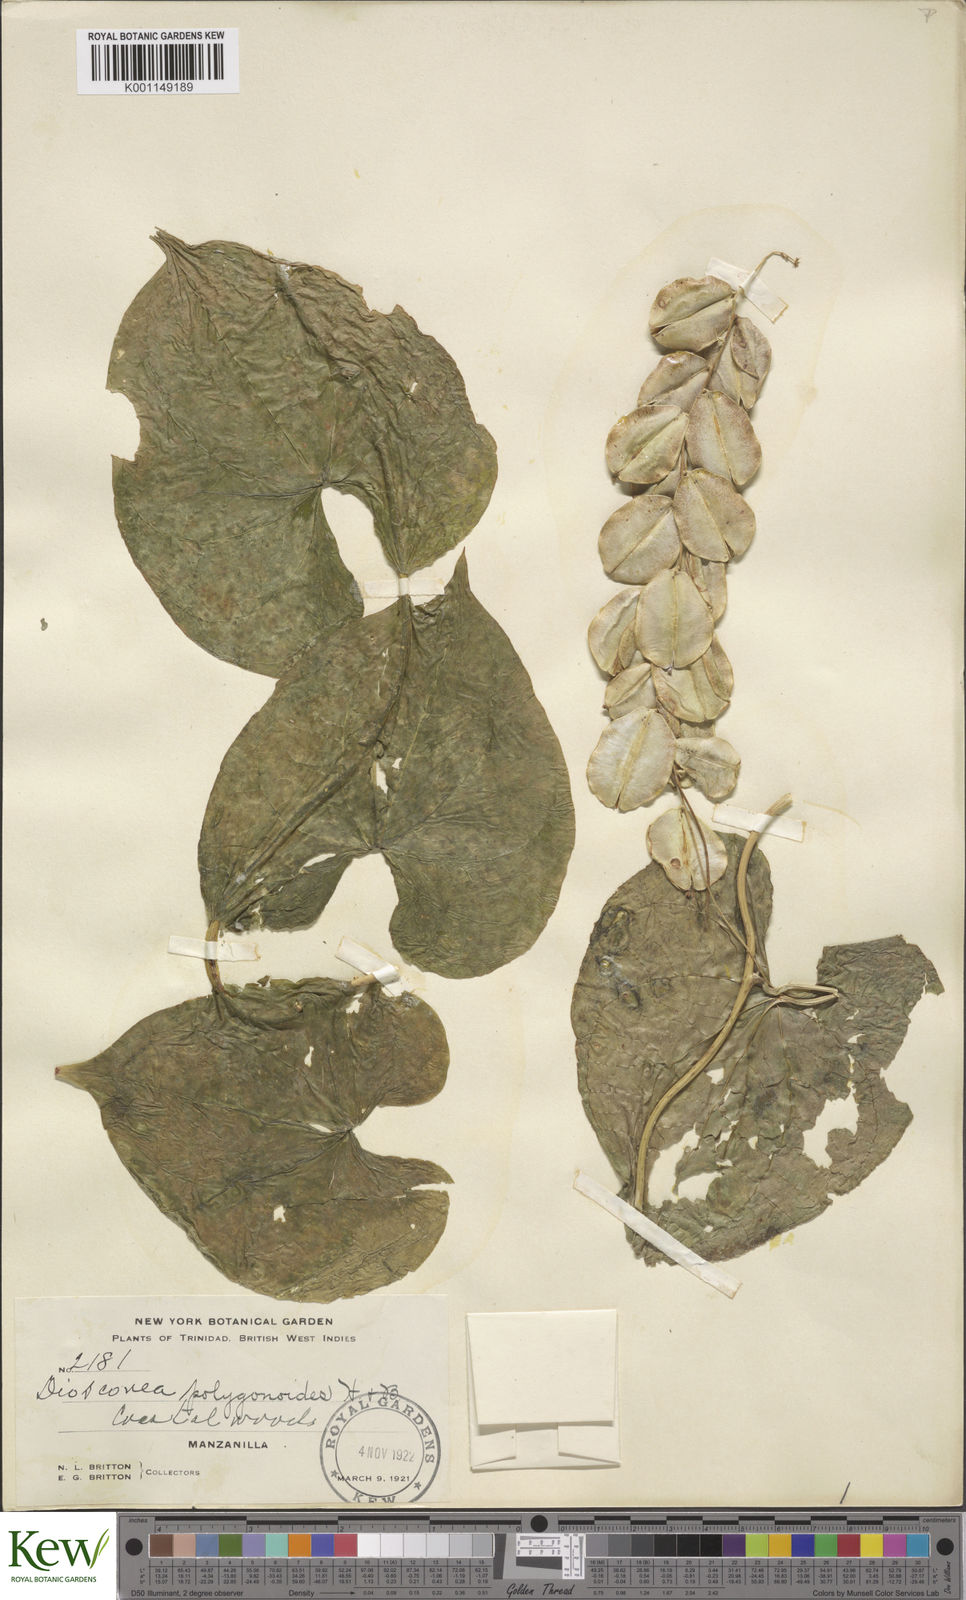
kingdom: Plantae
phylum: Tracheophyta
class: Liliopsida
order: Dioscoreales
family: Dioscoreaceae
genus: Dioscorea
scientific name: Dioscorea polygonoides
